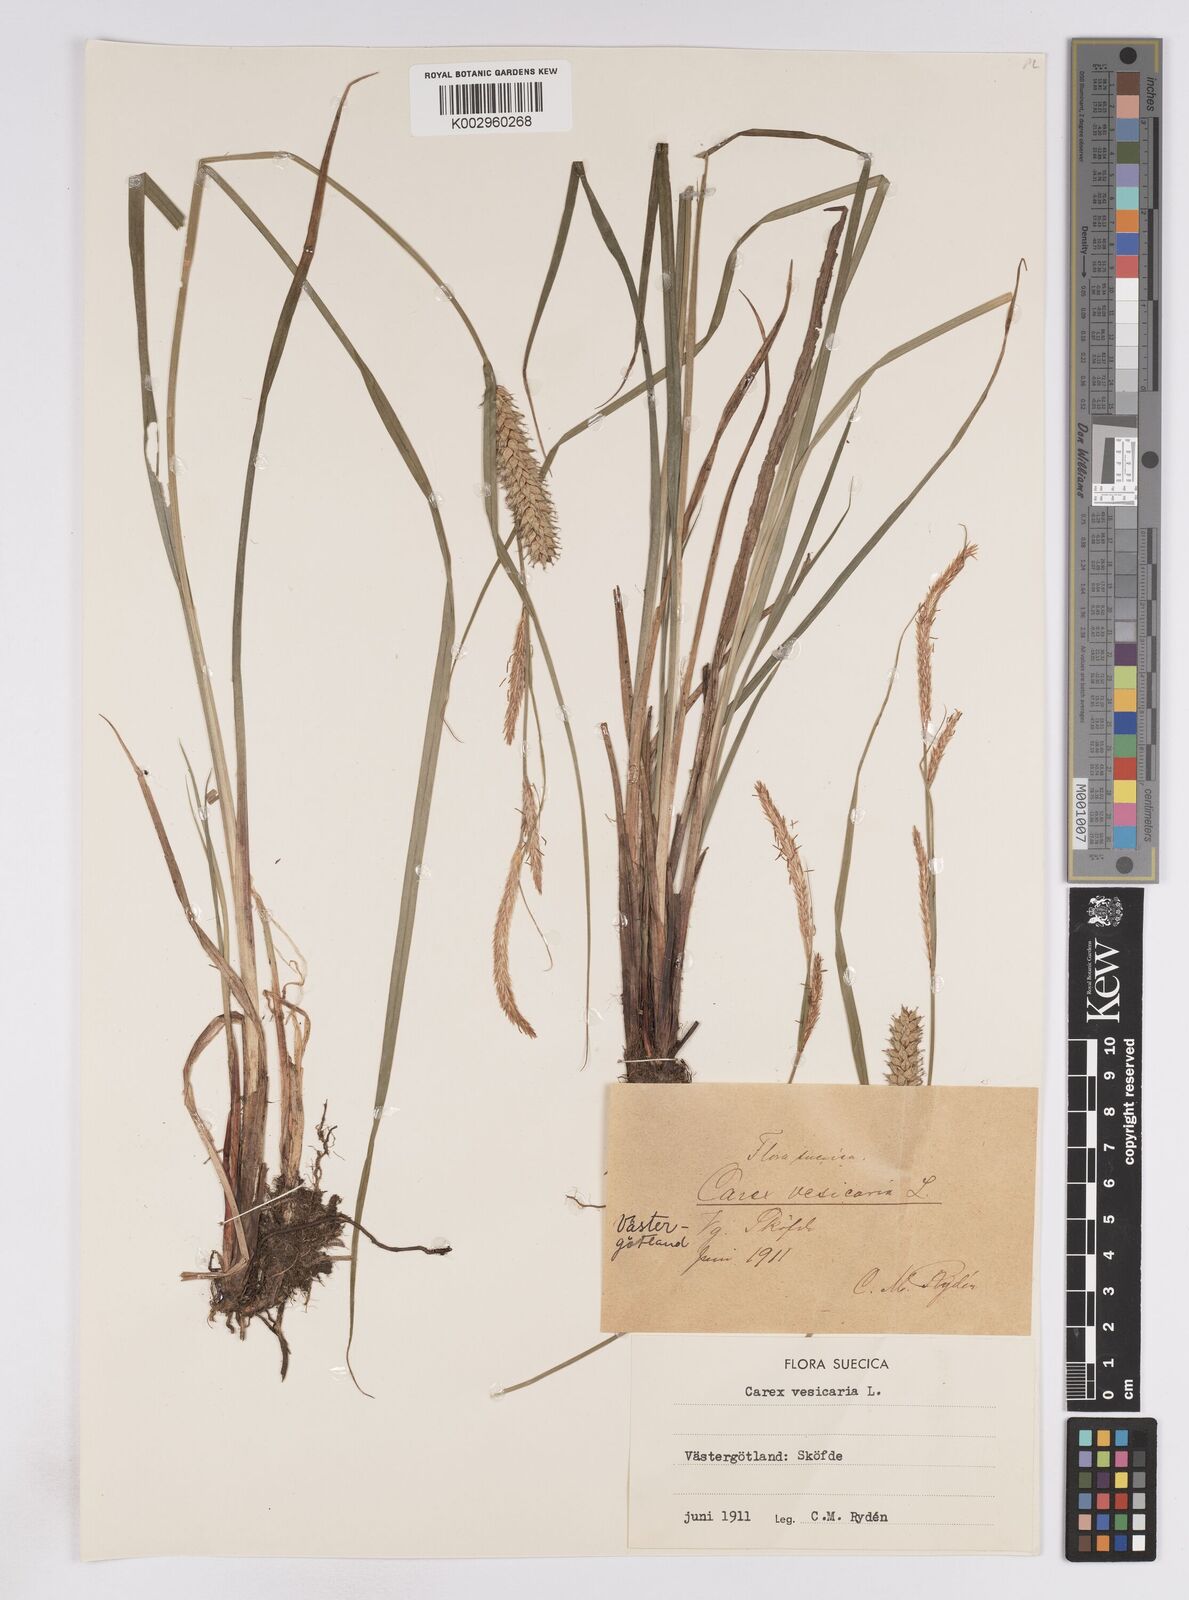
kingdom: Plantae
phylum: Tracheophyta
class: Liliopsida
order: Poales
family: Cyperaceae
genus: Carex
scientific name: Carex vesicaria
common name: Bladder-sedge
